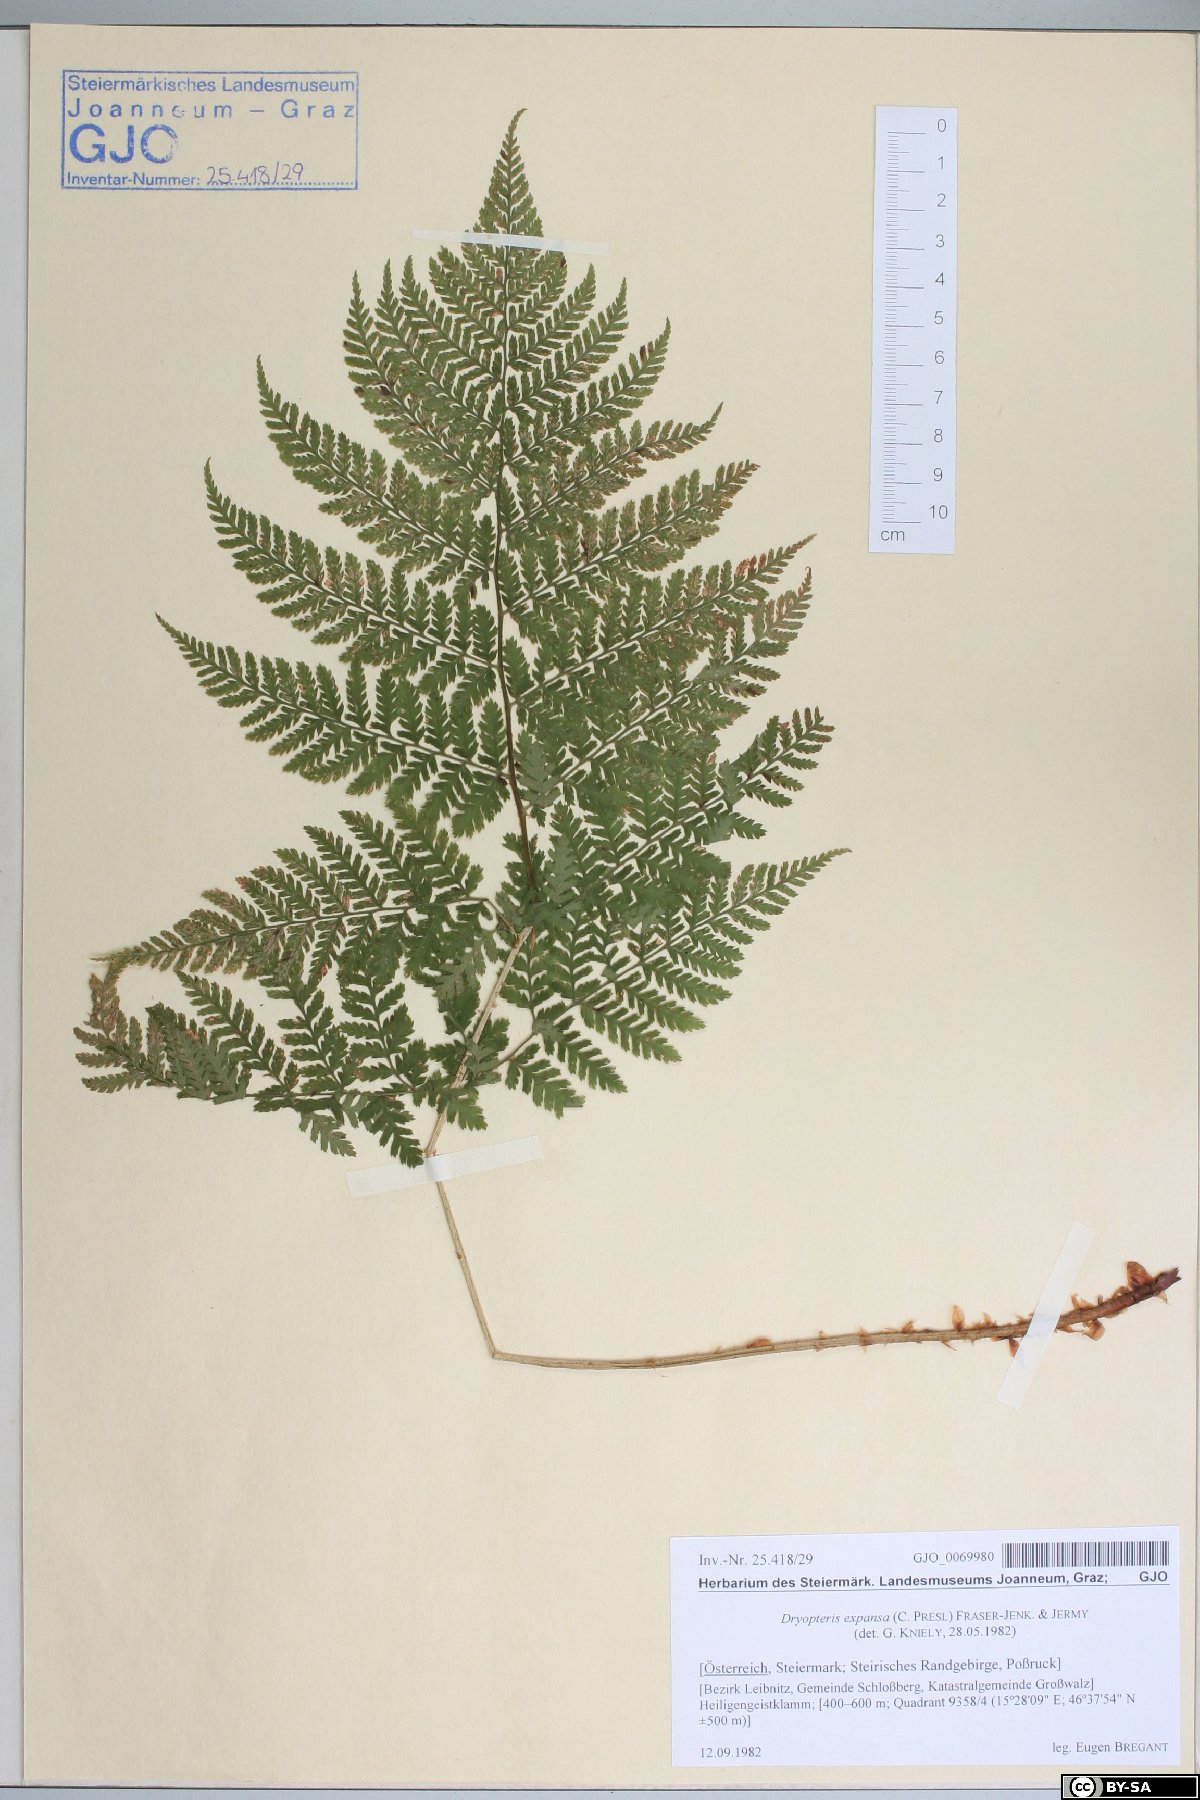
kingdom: Plantae
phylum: Tracheophyta
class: Polypodiopsida
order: Polypodiales
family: Dryopteridaceae
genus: Dryopteris
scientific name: Dryopteris expansa
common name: Northern buckler fern
